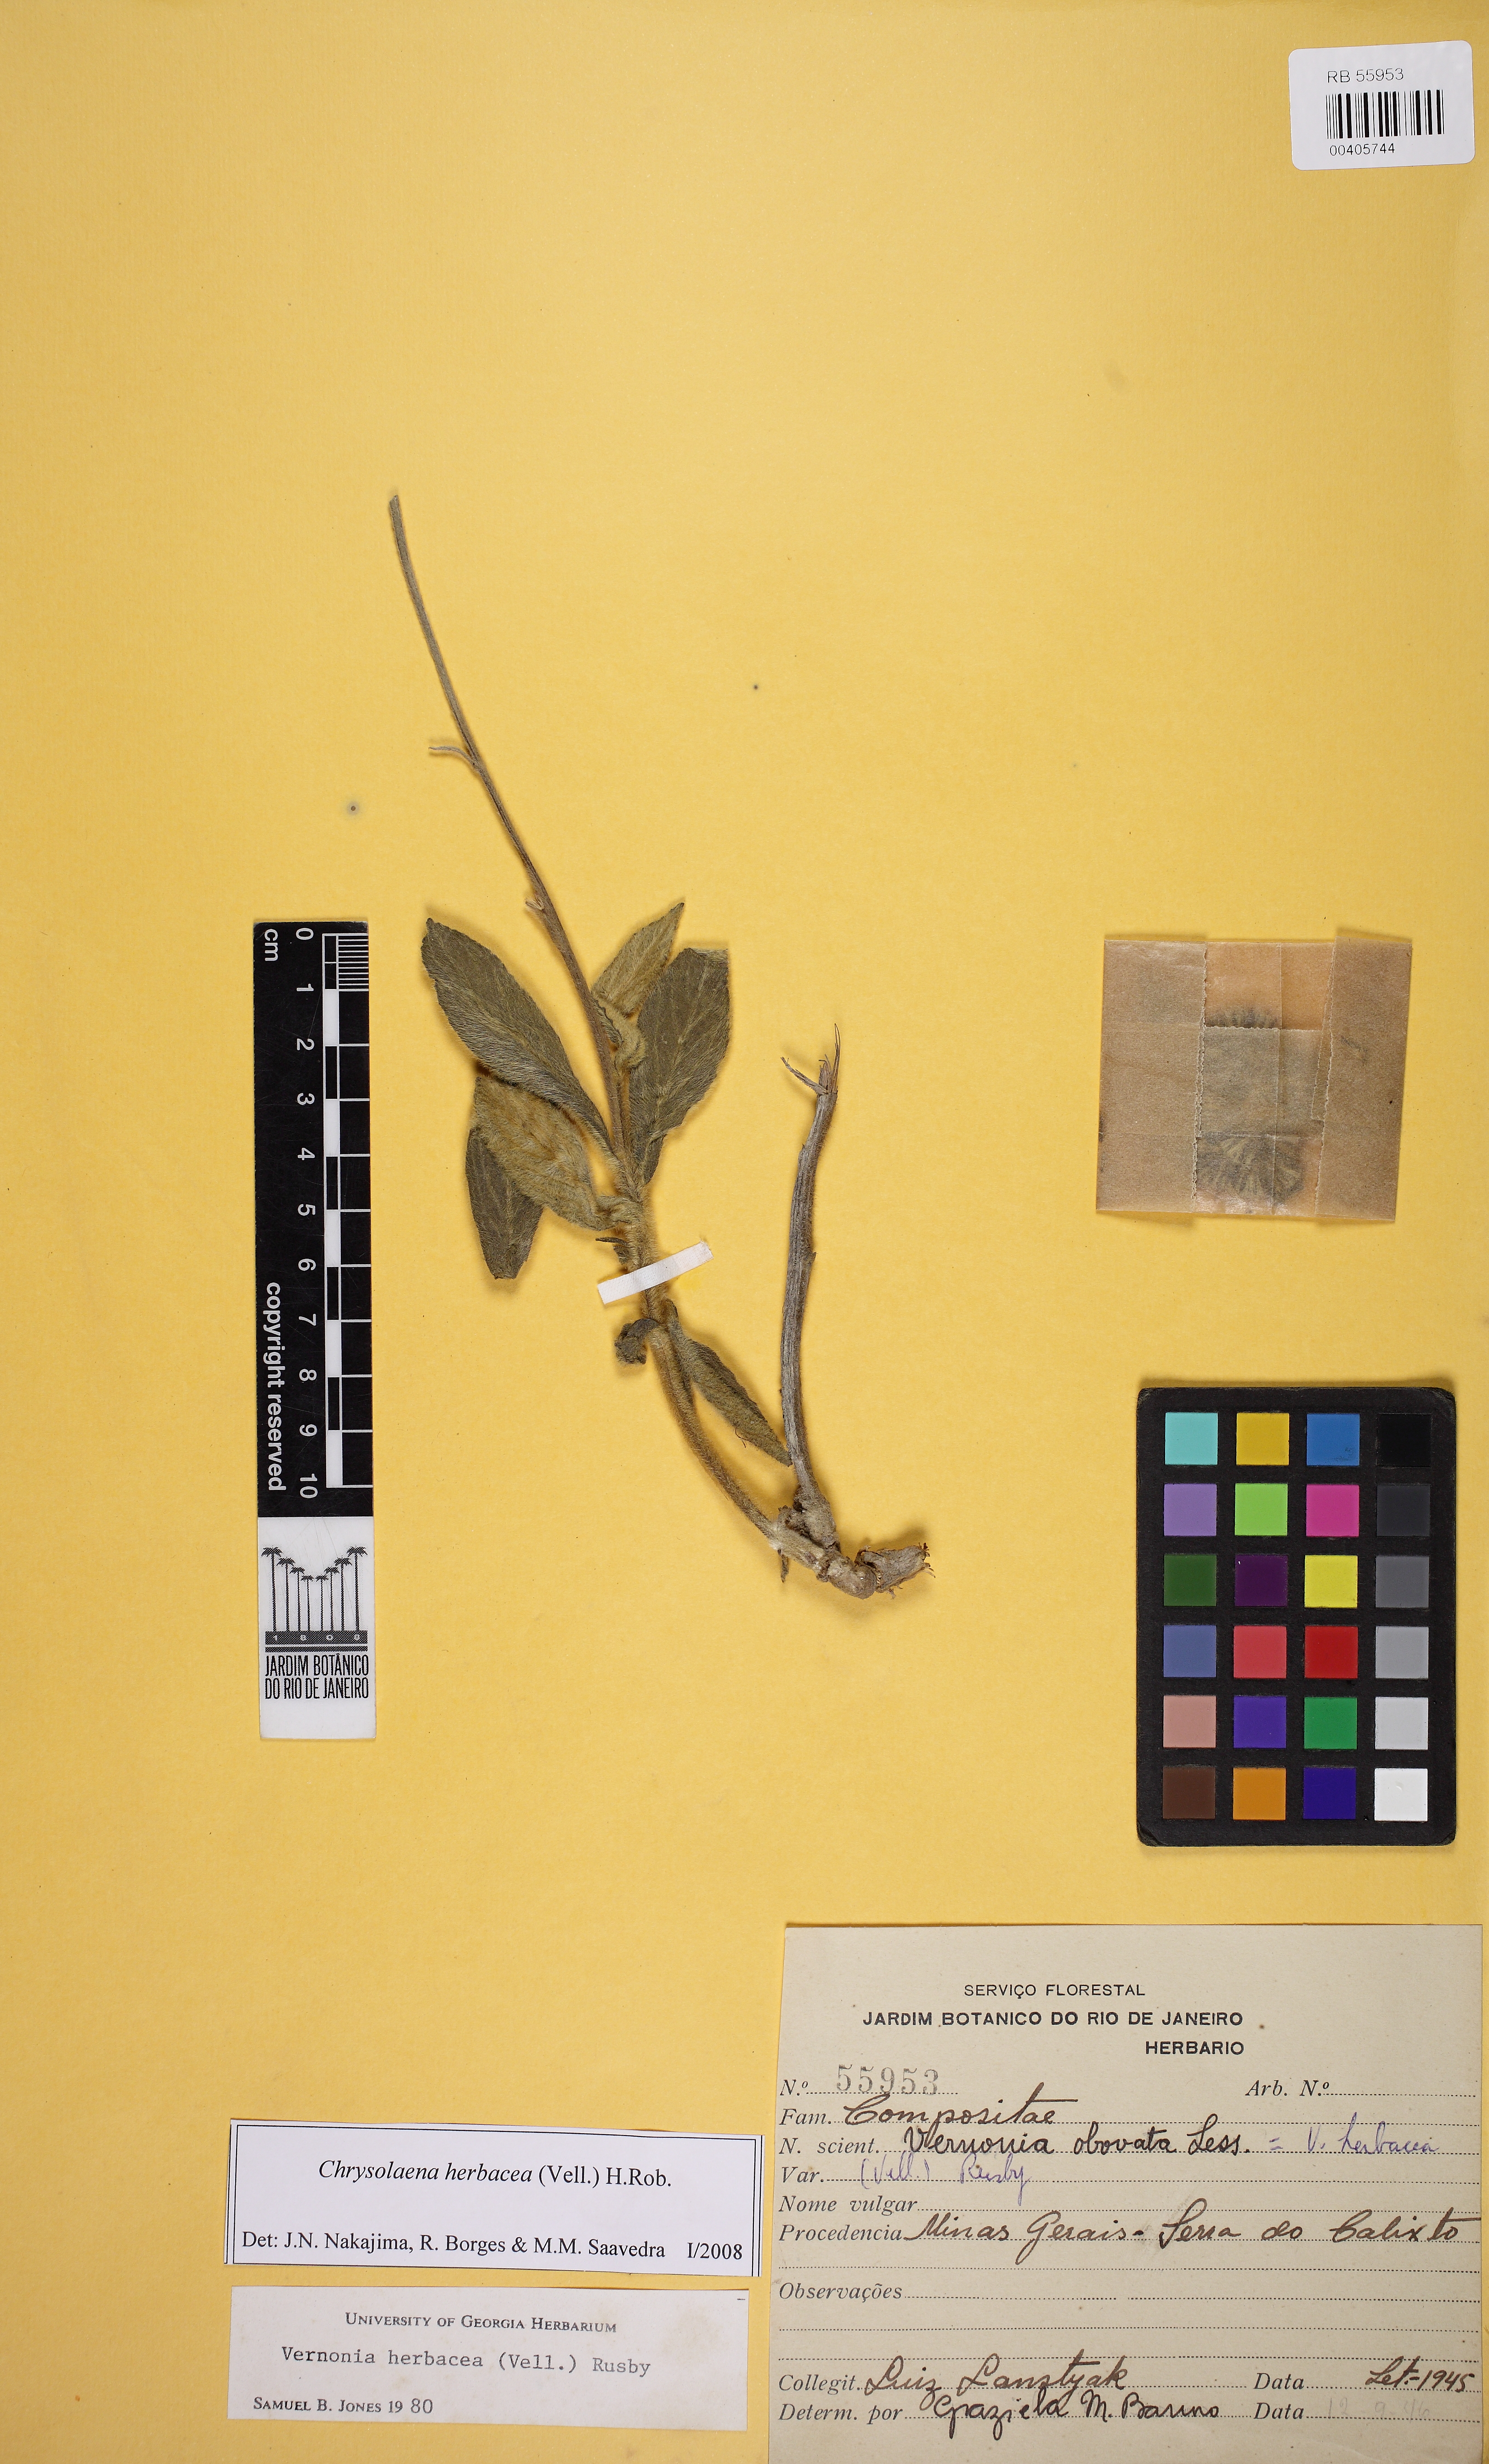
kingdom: Plantae
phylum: Tracheophyta
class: Magnoliopsida
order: Asterales
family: Asteraceae
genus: Chrysolaena
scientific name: Chrysolaena obovata
